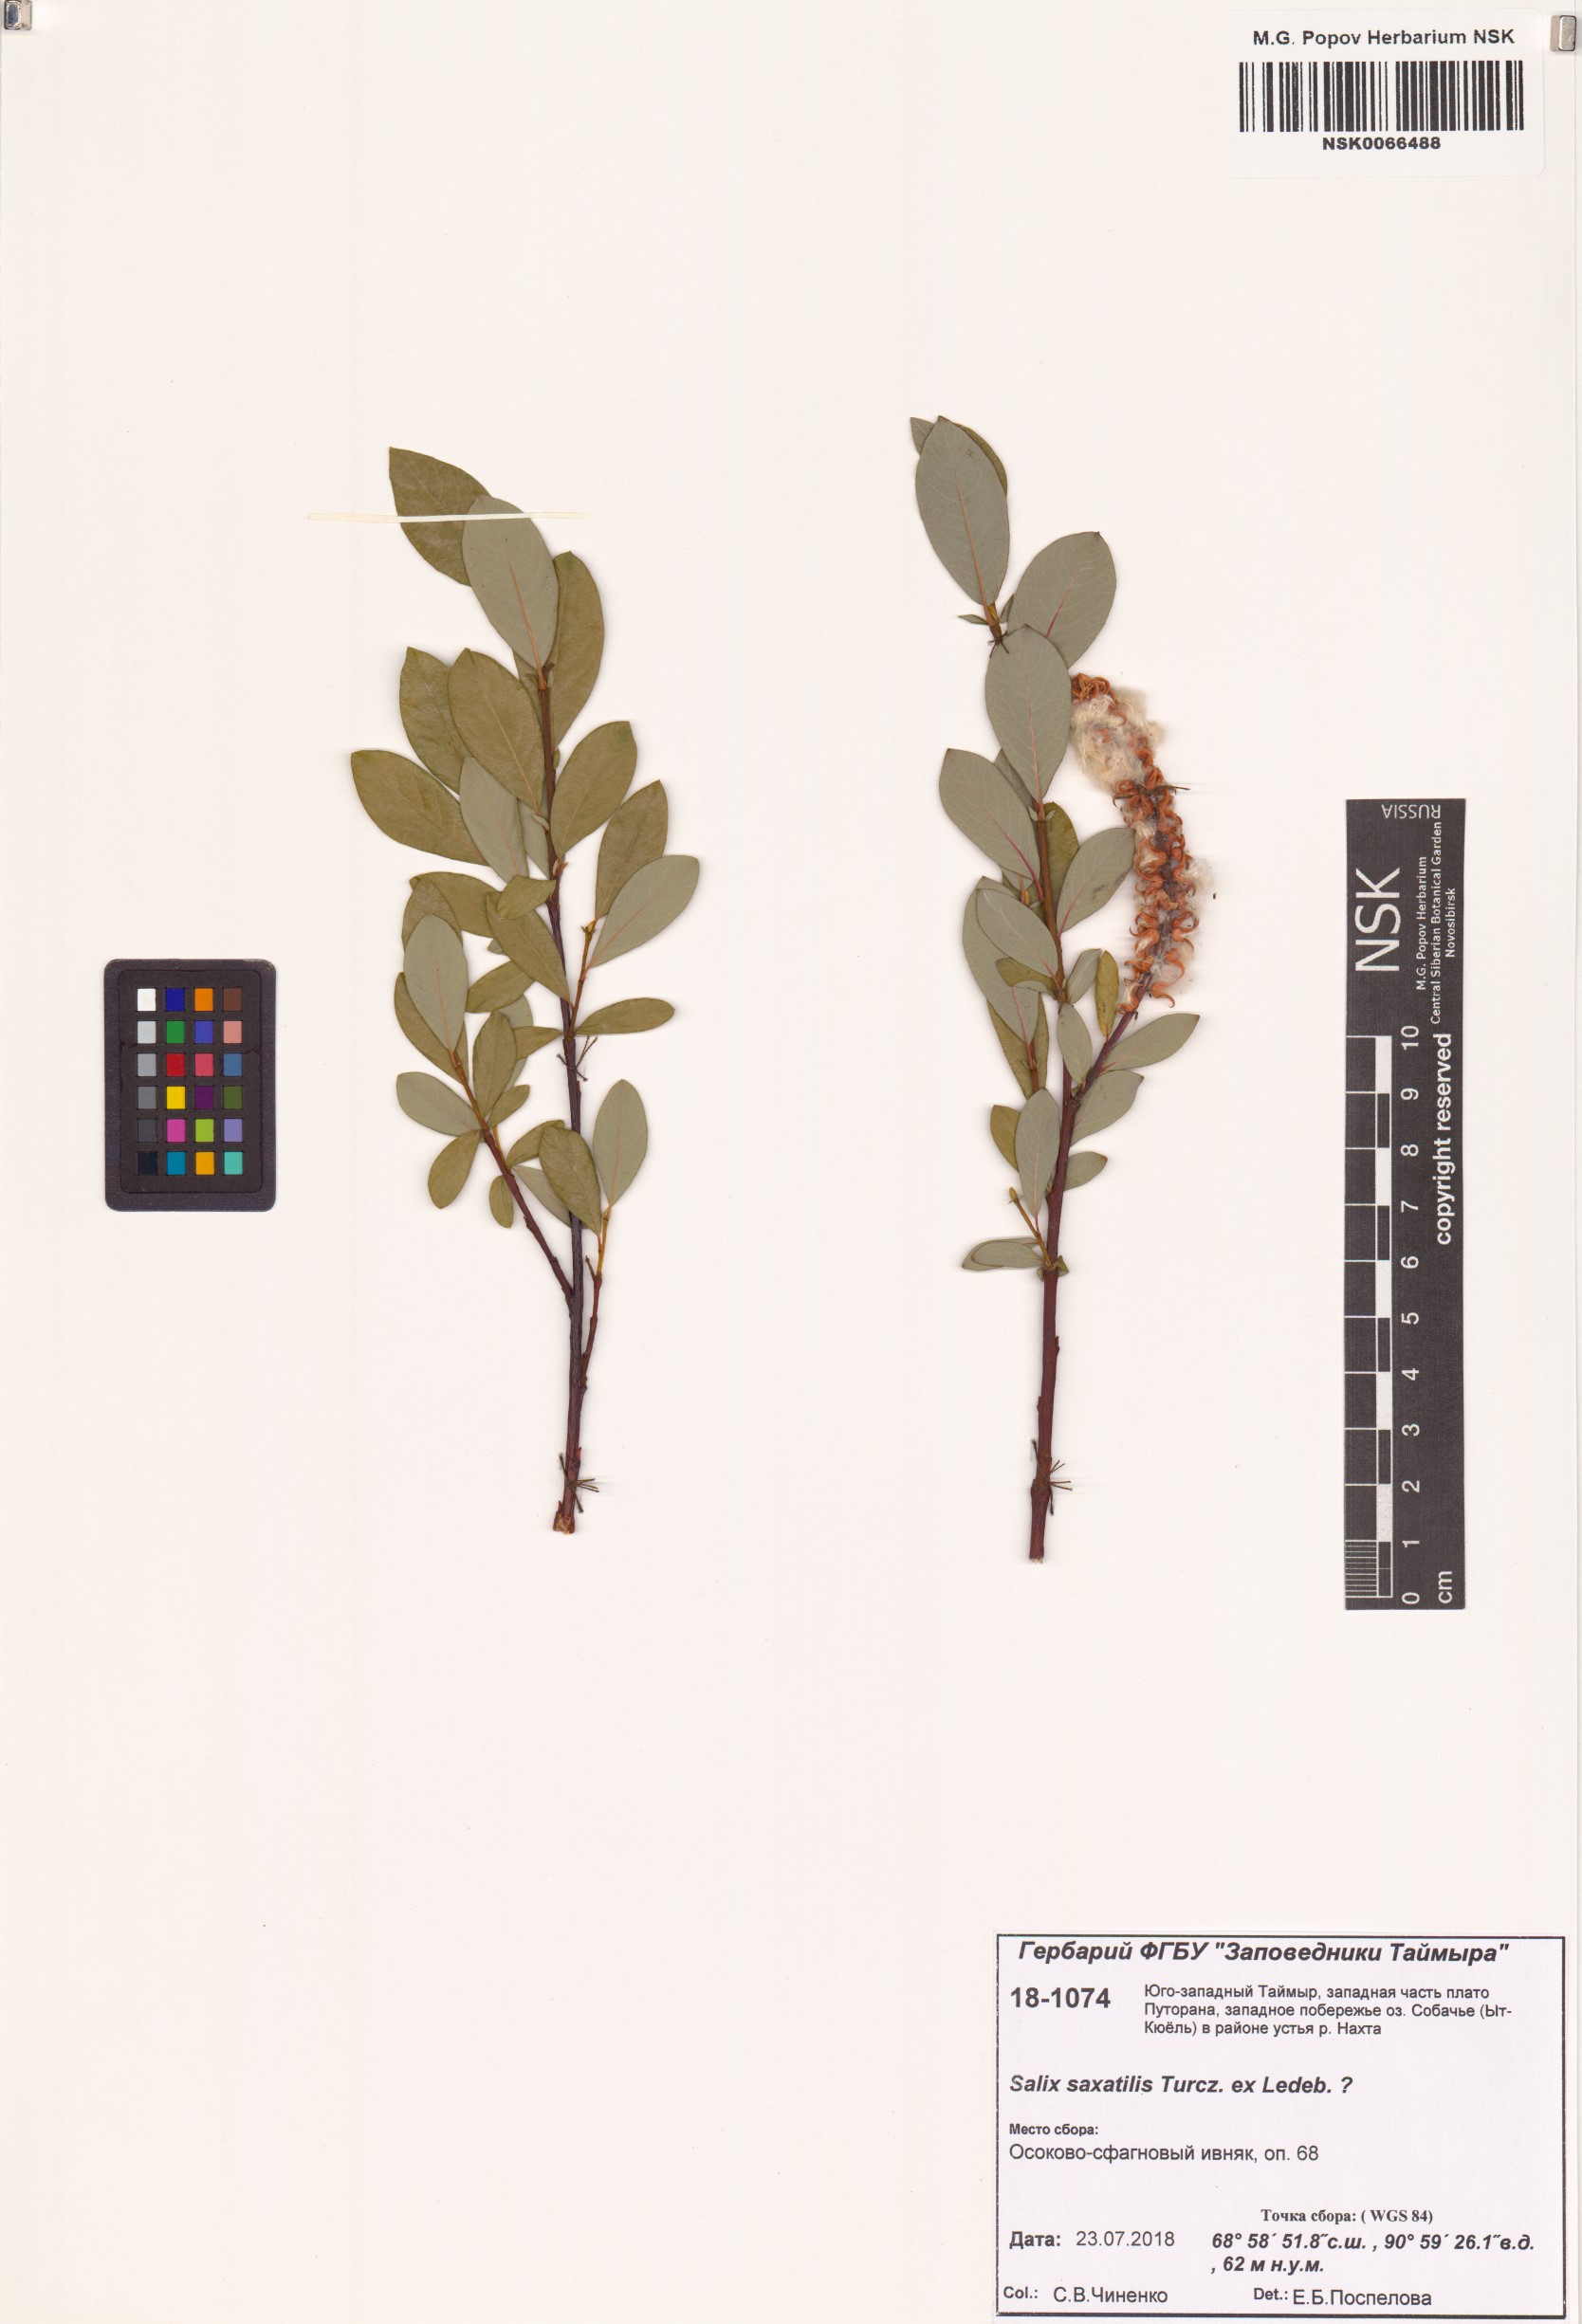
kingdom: Plantae
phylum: Tracheophyta
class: Magnoliopsida
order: Malpighiales
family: Salicaceae
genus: Salix
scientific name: Salix saxatilis
